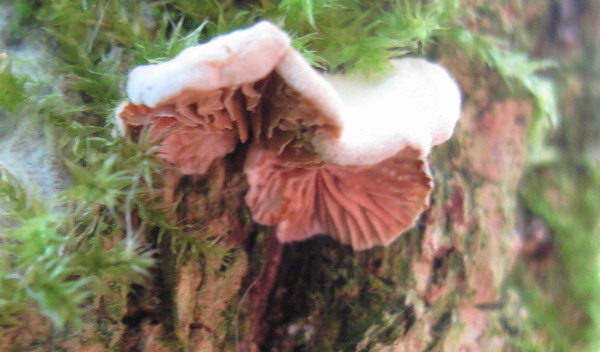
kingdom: Fungi
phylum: Basidiomycota
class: Agaricomycetes
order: Agaricales
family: Crepidotaceae
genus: Crepidotus
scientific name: Crepidotus cesatii
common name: almindelig muslingesvamp
